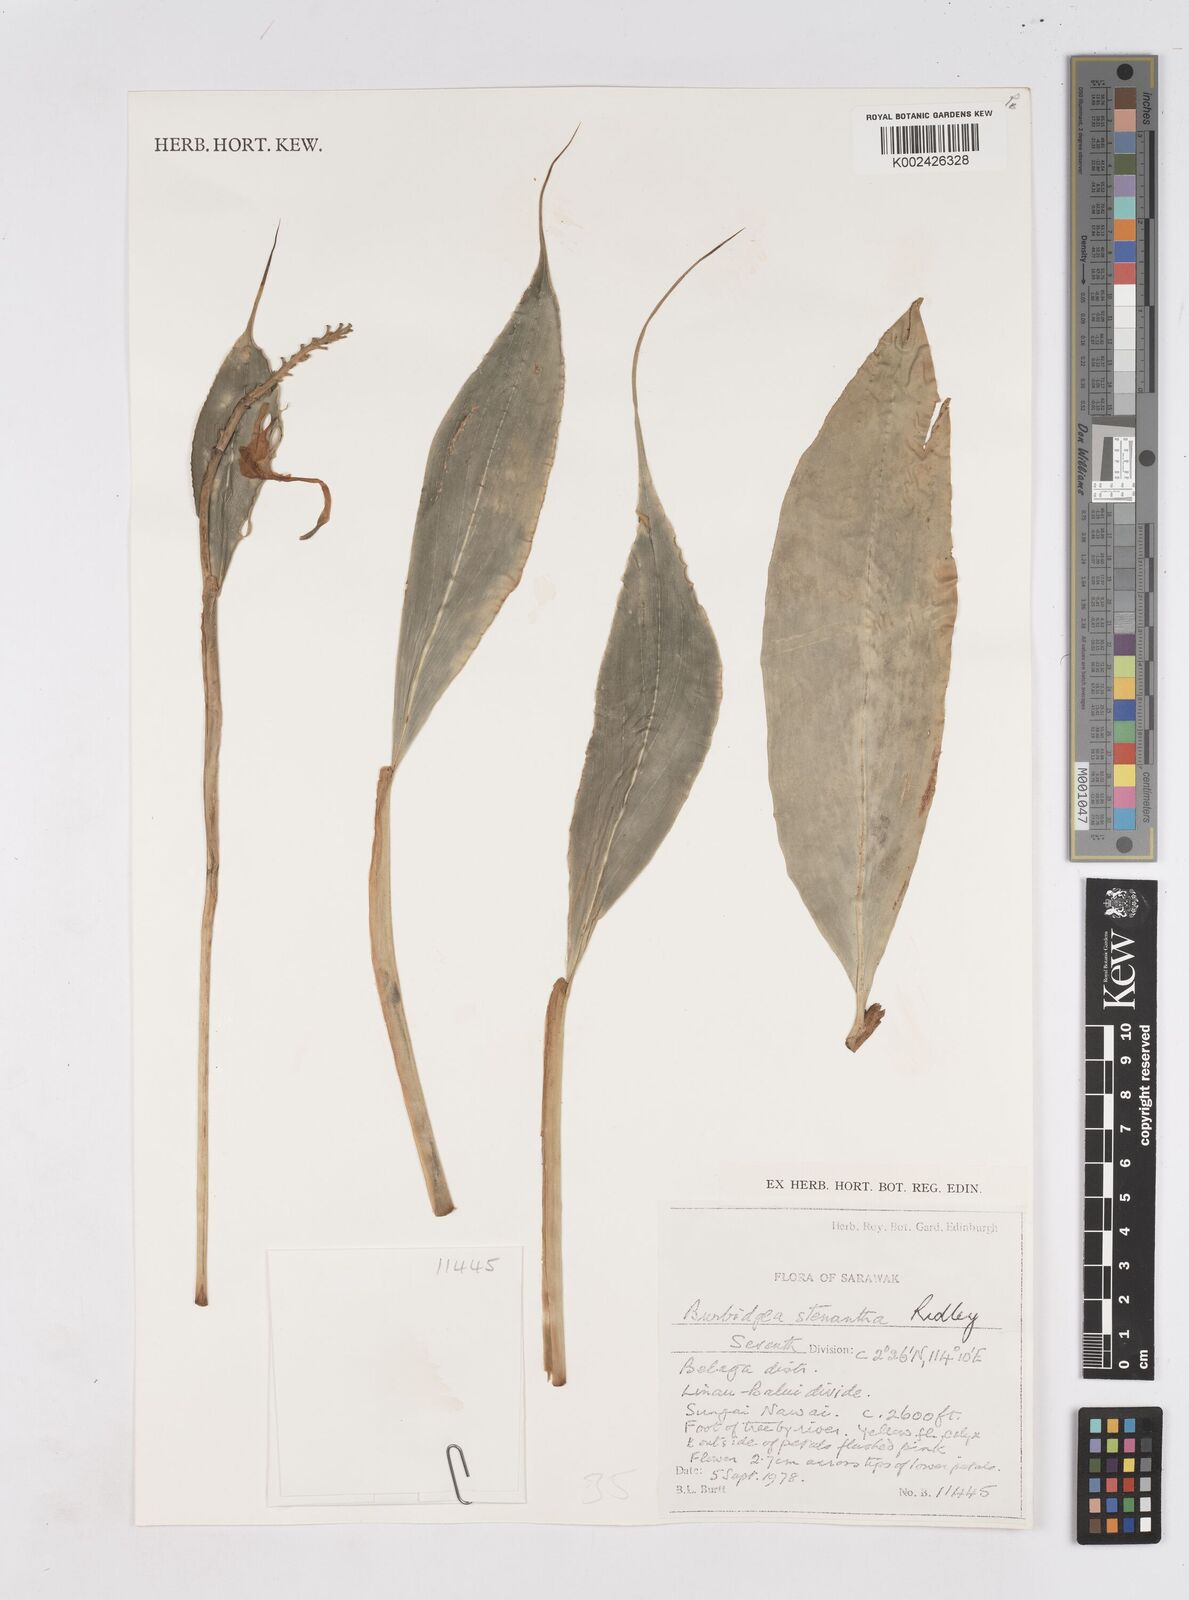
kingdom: Plantae
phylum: Tracheophyta
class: Liliopsida
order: Zingiberales
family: Zingiberaceae
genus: Burbidgea
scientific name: Burbidgea stenantha
